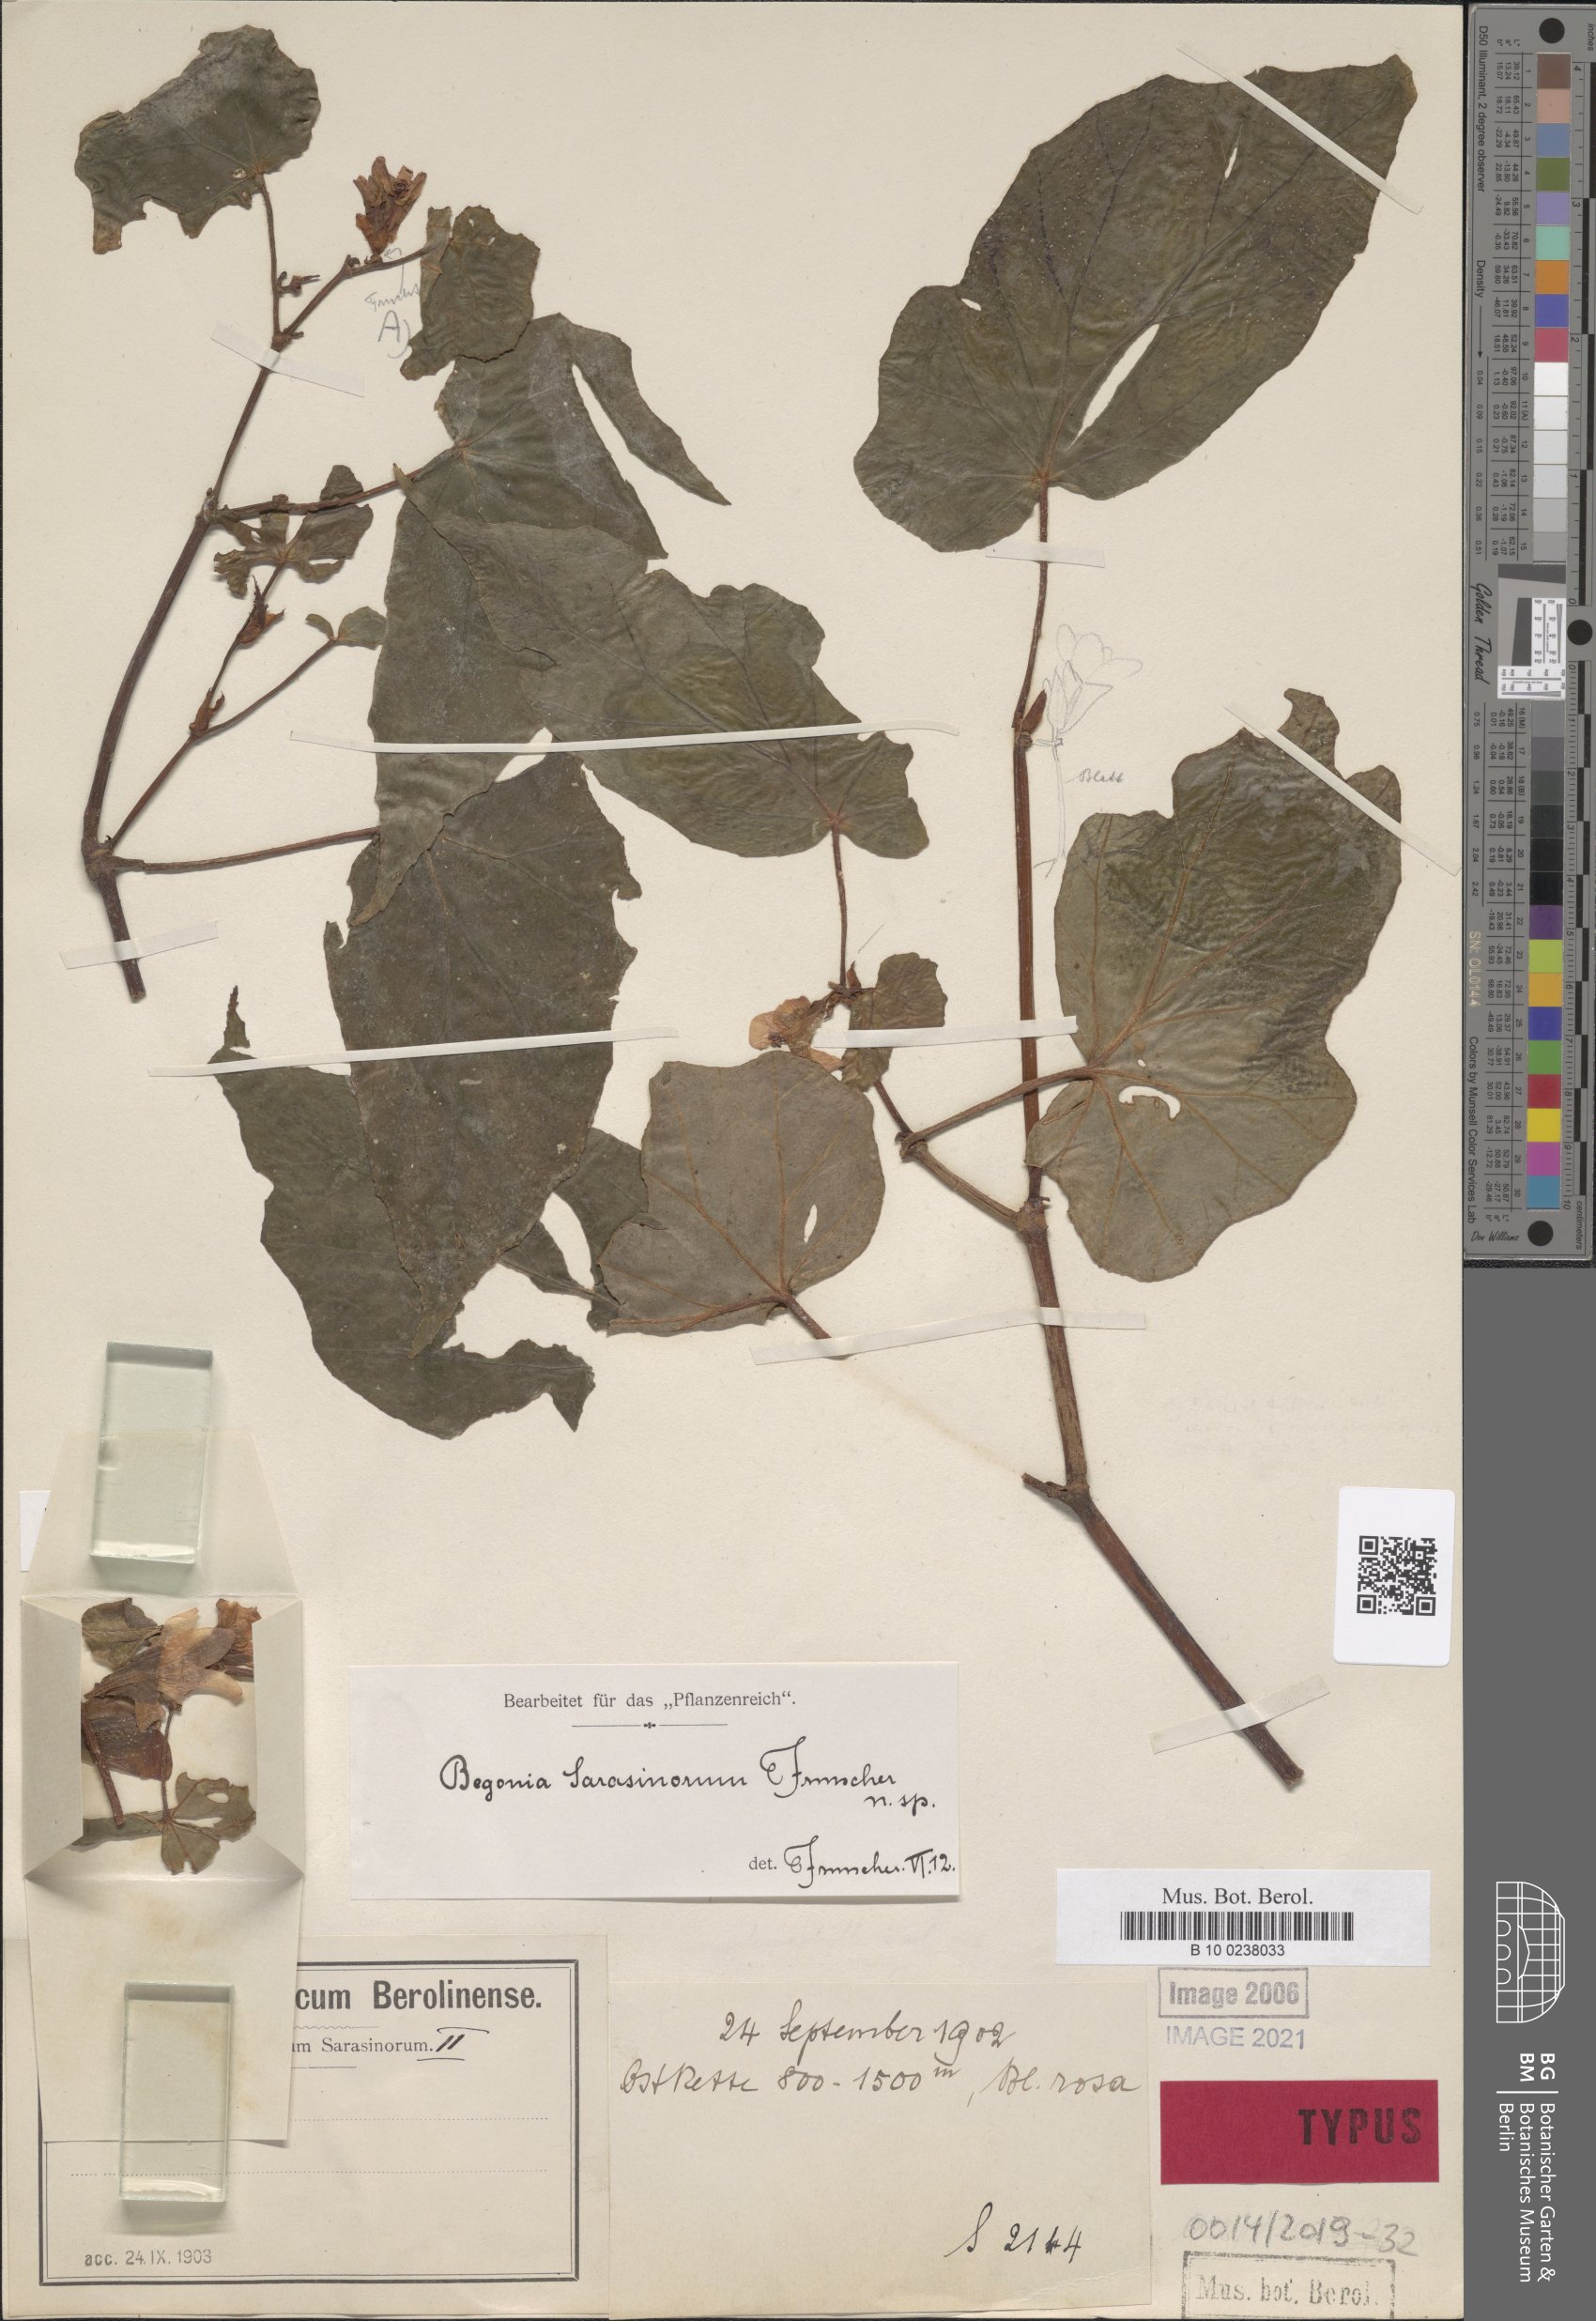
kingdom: Plantae
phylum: Tracheophyta
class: Magnoliopsida
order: Cucurbitales
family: Begoniaceae
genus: Begonia
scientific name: Begonia sarasinorum
